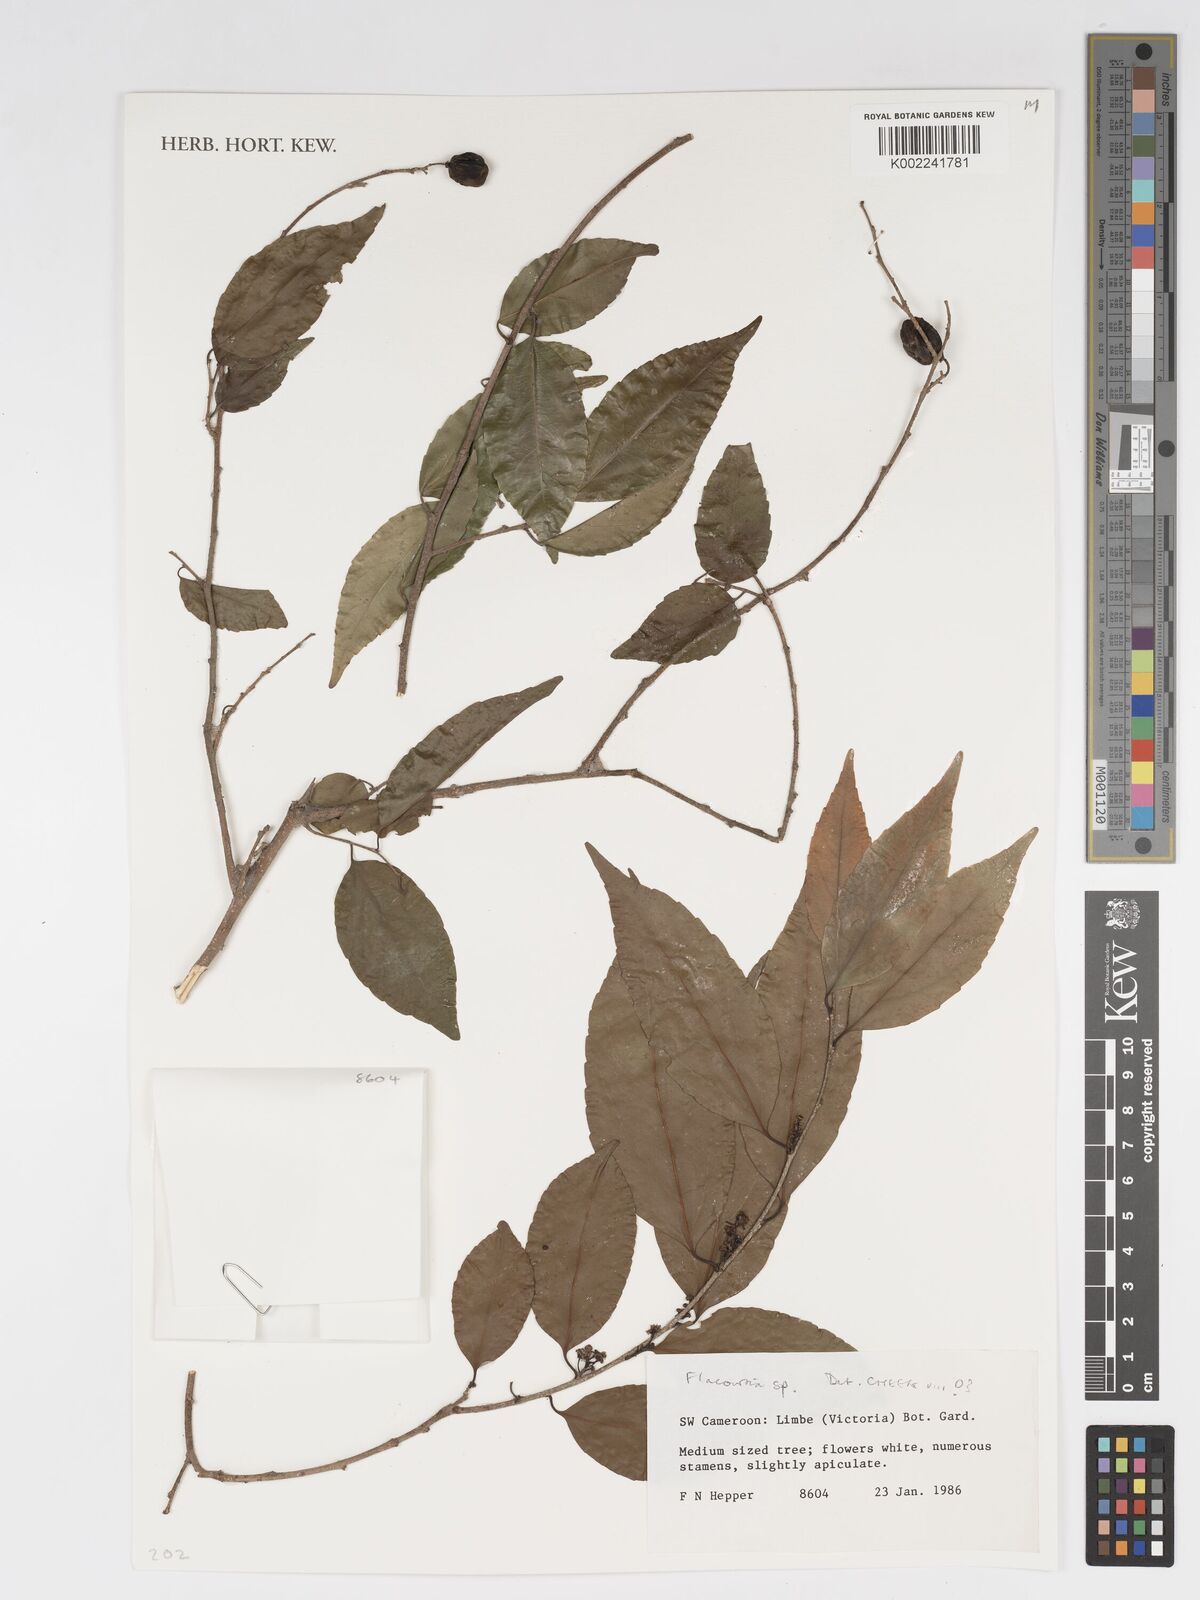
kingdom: Plantae
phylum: Tracheophyta
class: Magnoliopsida
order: Malpighiales
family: Salicaceae
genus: Flacourtia
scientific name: Flacourtia
